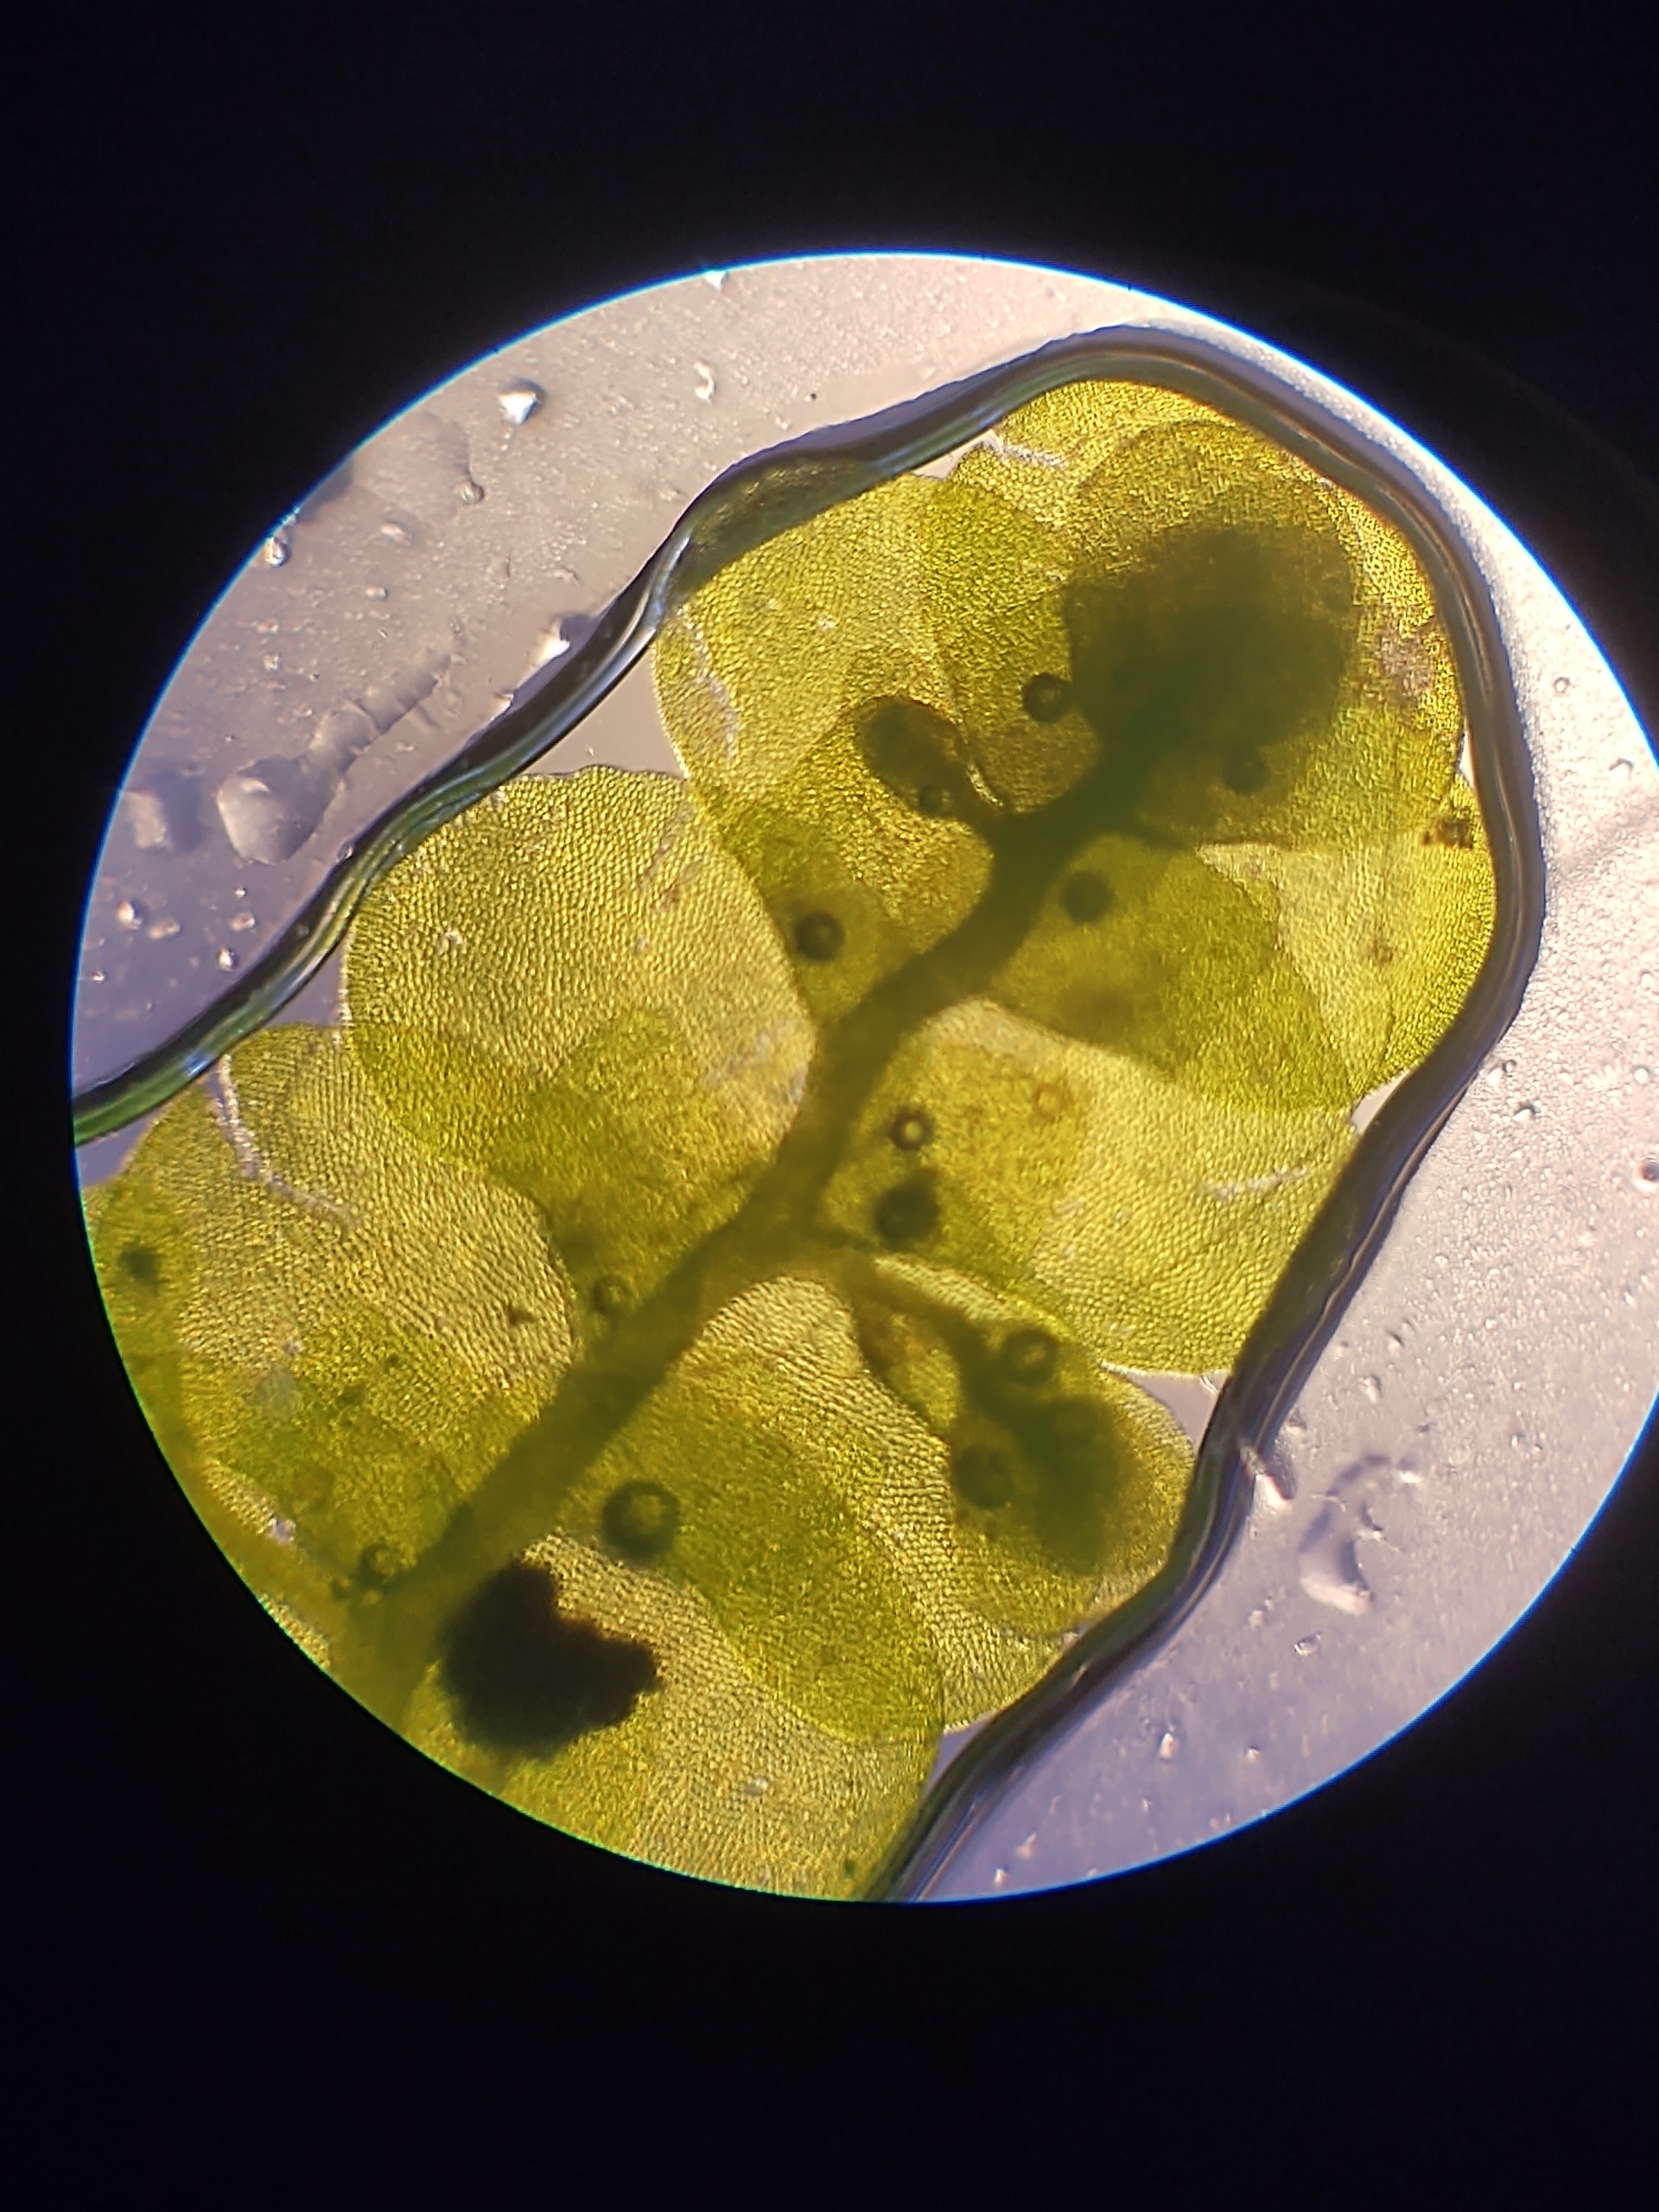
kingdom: Plantae
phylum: Marchantiophyta
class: Jungermanniopsida
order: Porellales
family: Radulaceae
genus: Radula
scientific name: Radula complanata
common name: Almindelig spartelmos
